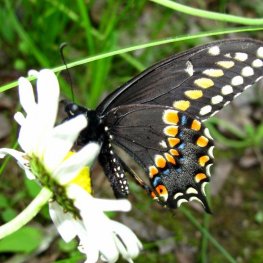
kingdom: Animalia
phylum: Arthropoda
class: Insecta
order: Lepidoptera
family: Papilionidae
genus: Papilio
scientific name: Papilio polyxenes
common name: Black Swallowtail
